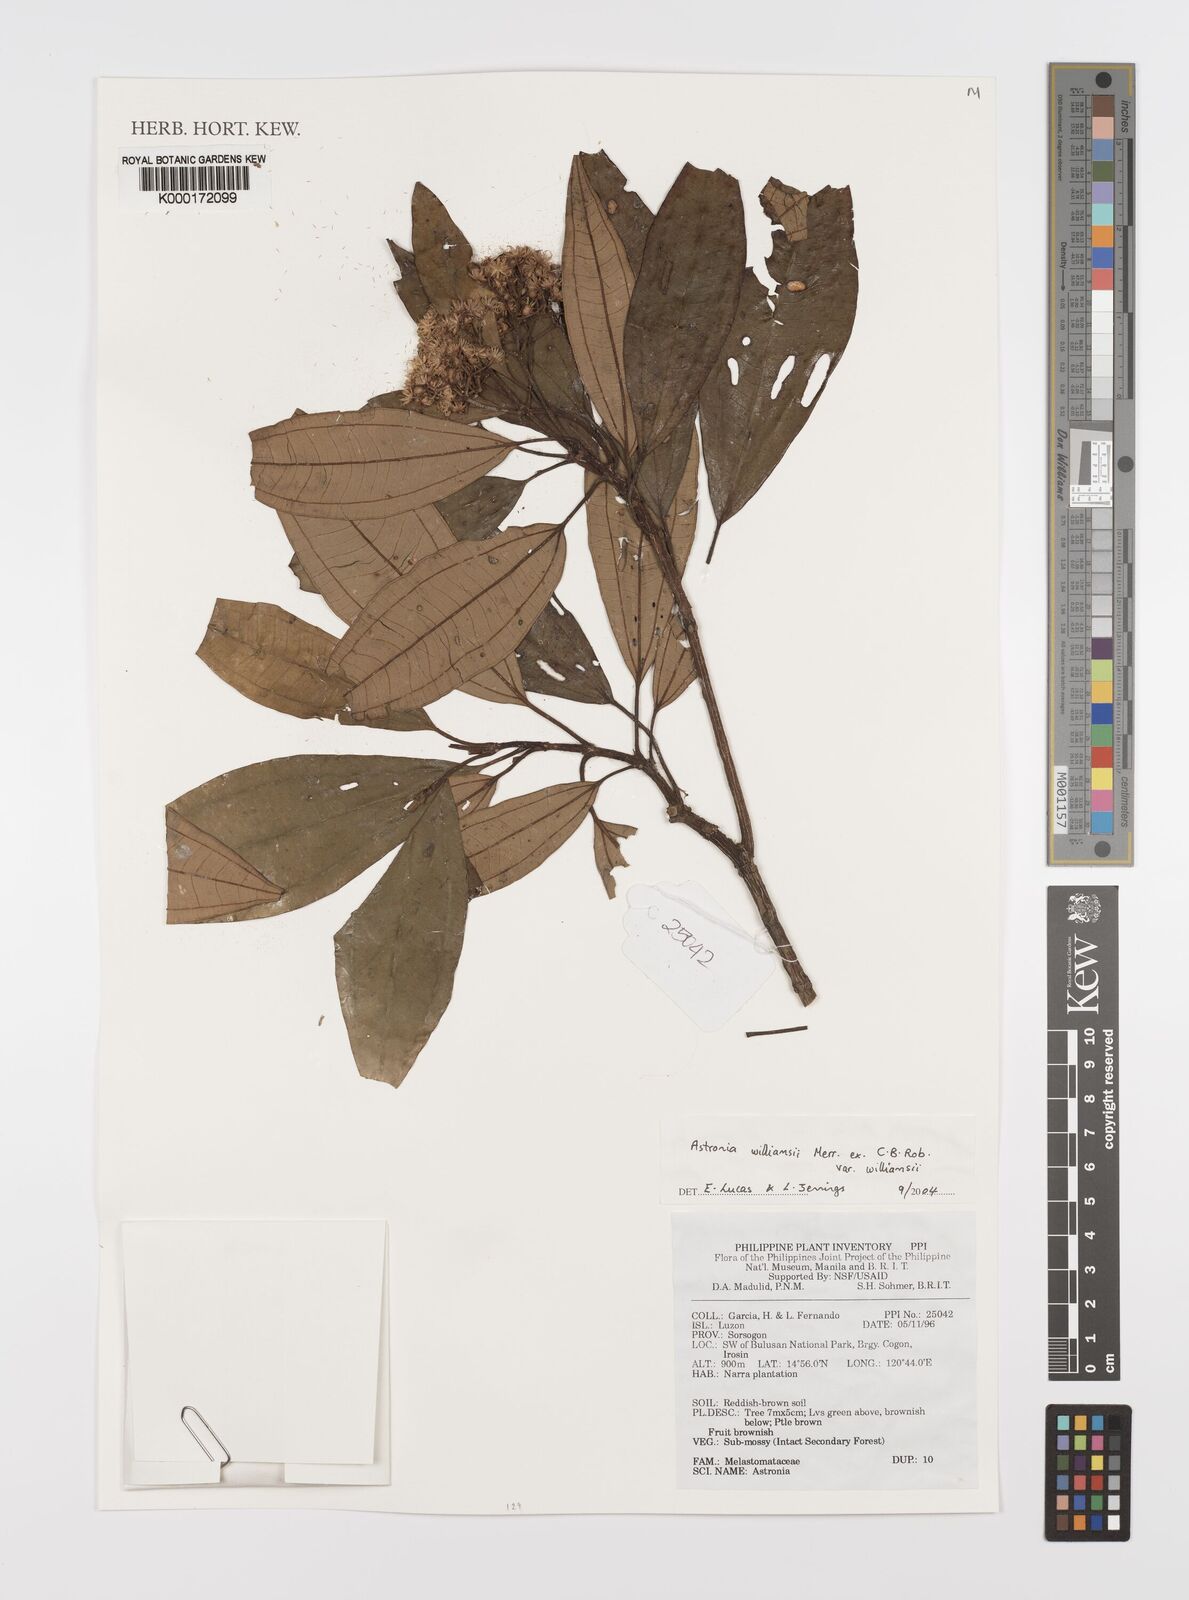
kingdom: Plantae
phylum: Tracheophyta
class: Magnoliopsida
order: Myrtales
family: Melastomataceae
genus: Astronia
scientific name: Astronia williamsii
